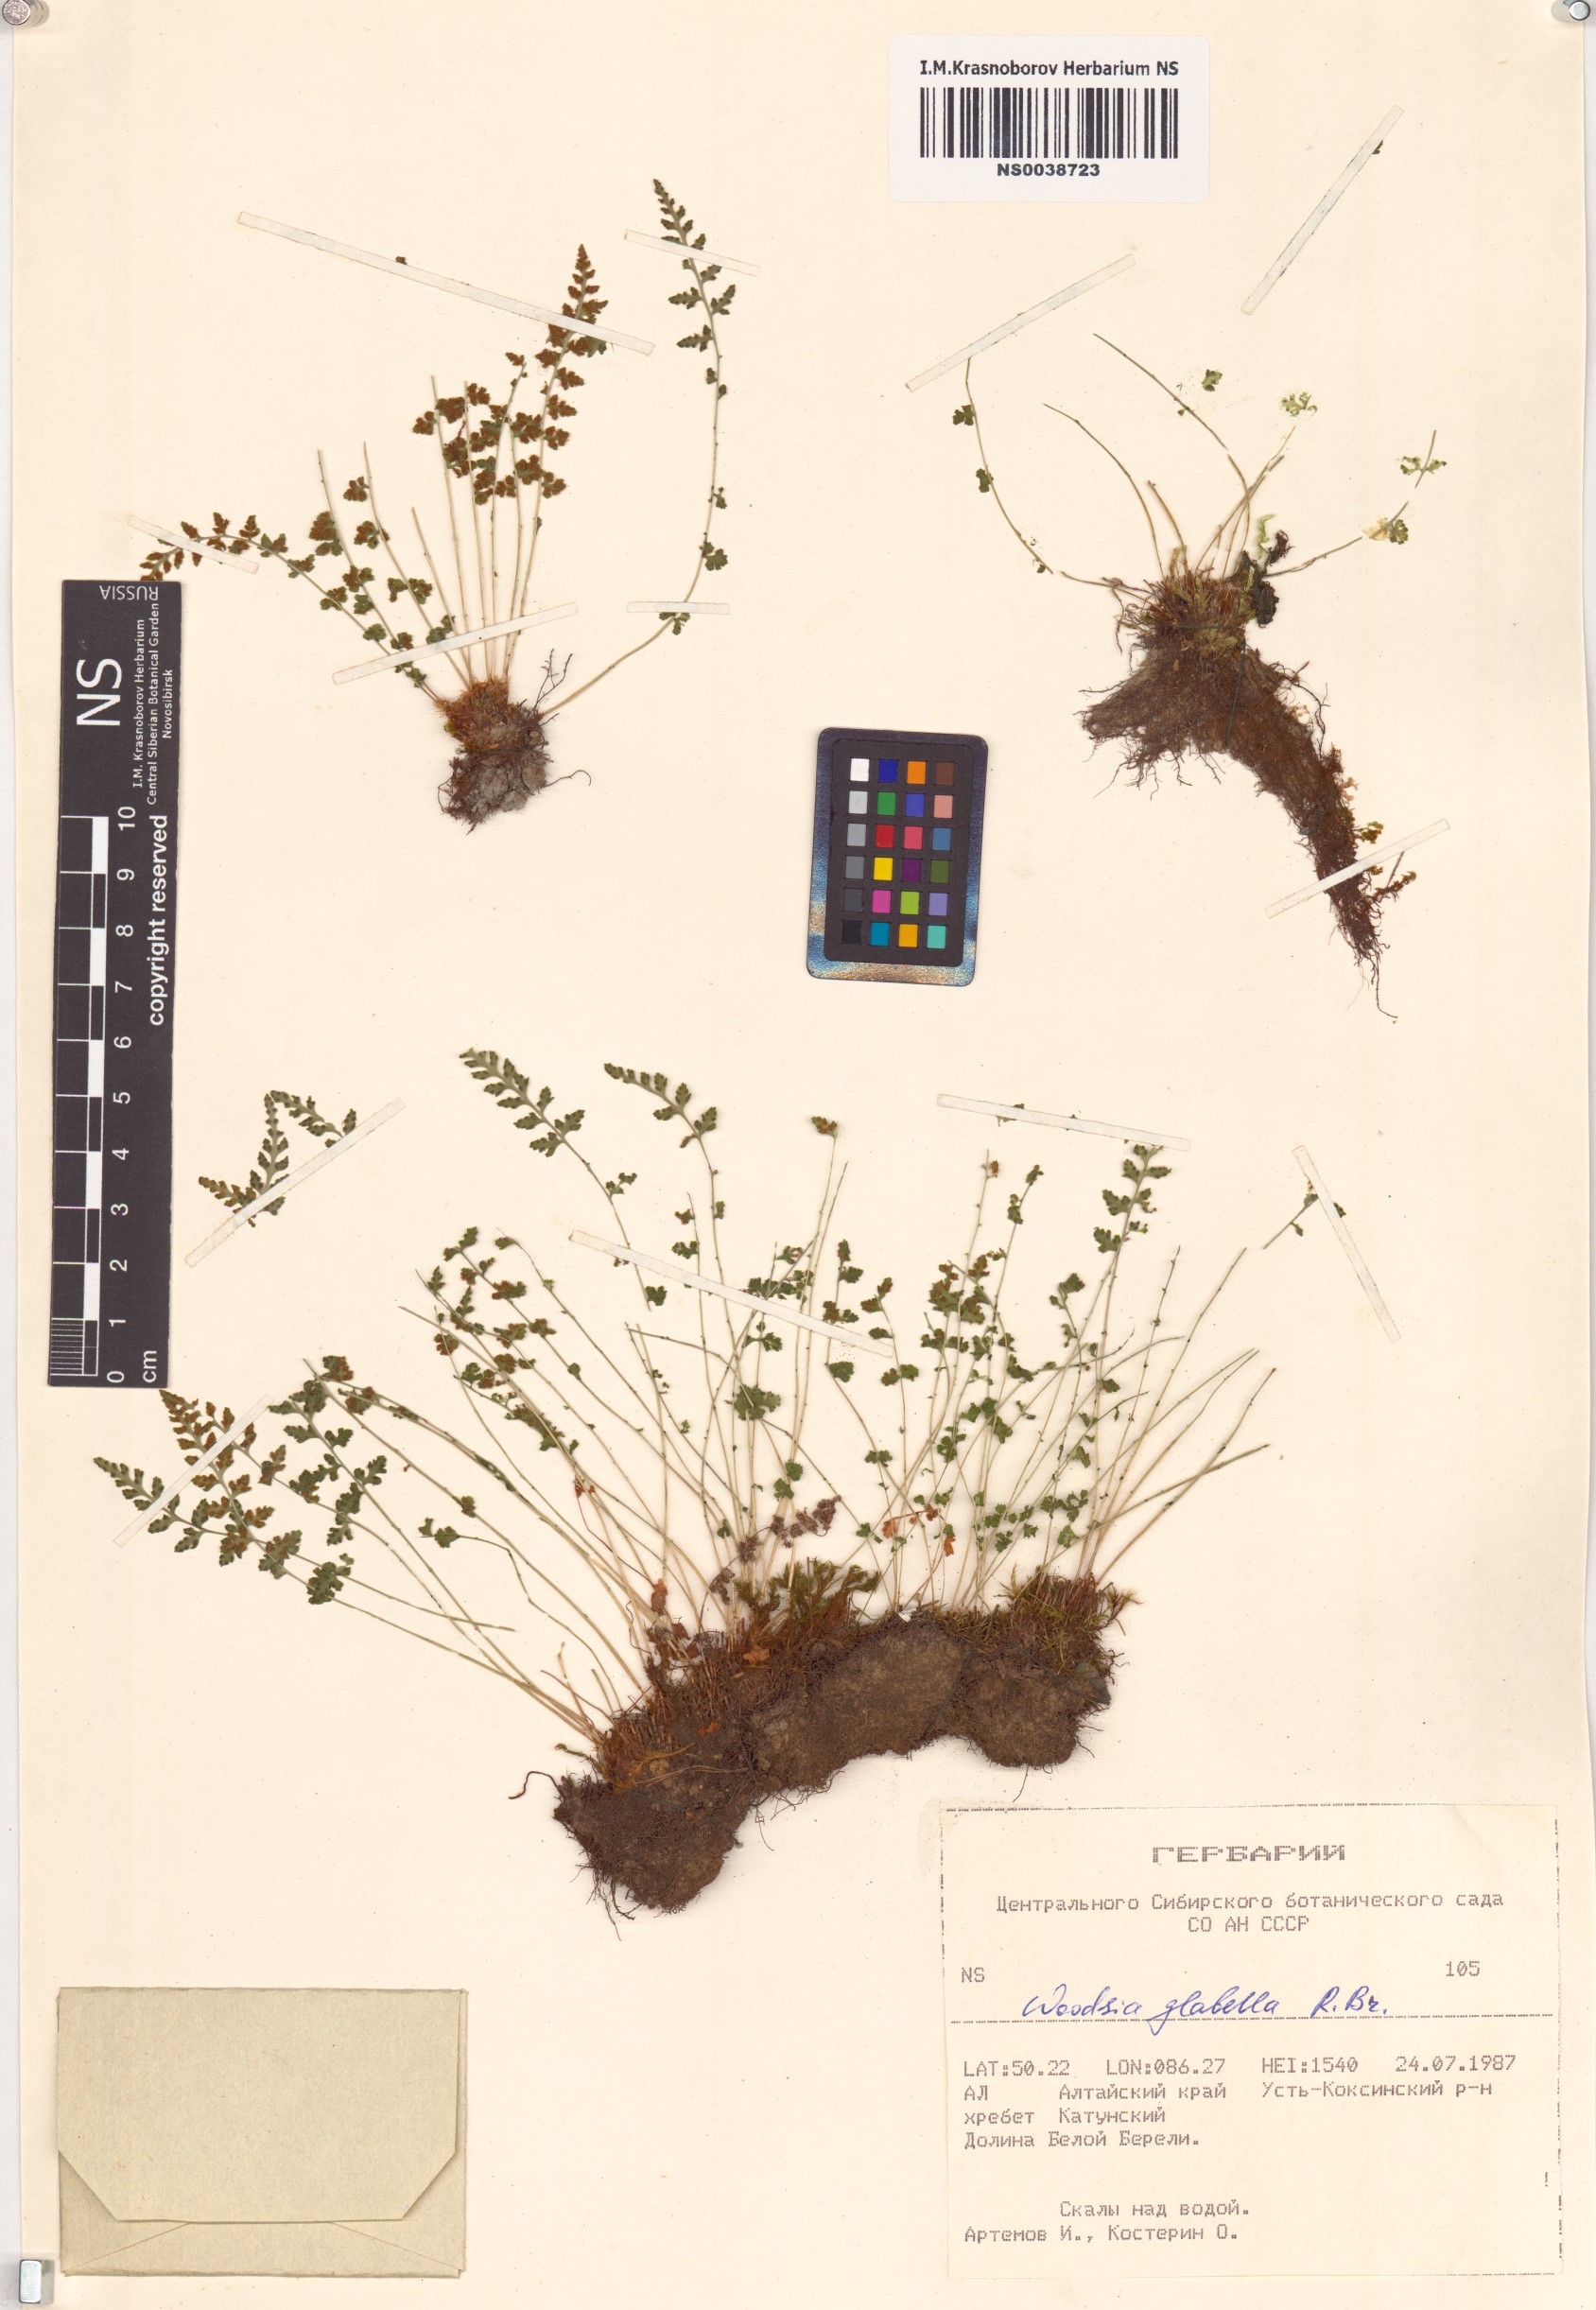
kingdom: Plantae
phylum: Tracheophyta
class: Polypodiopsida
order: Polypodiales
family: Woodsiaceae
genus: Woodsia
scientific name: Woodsia glabella
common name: Smooth woodsia
